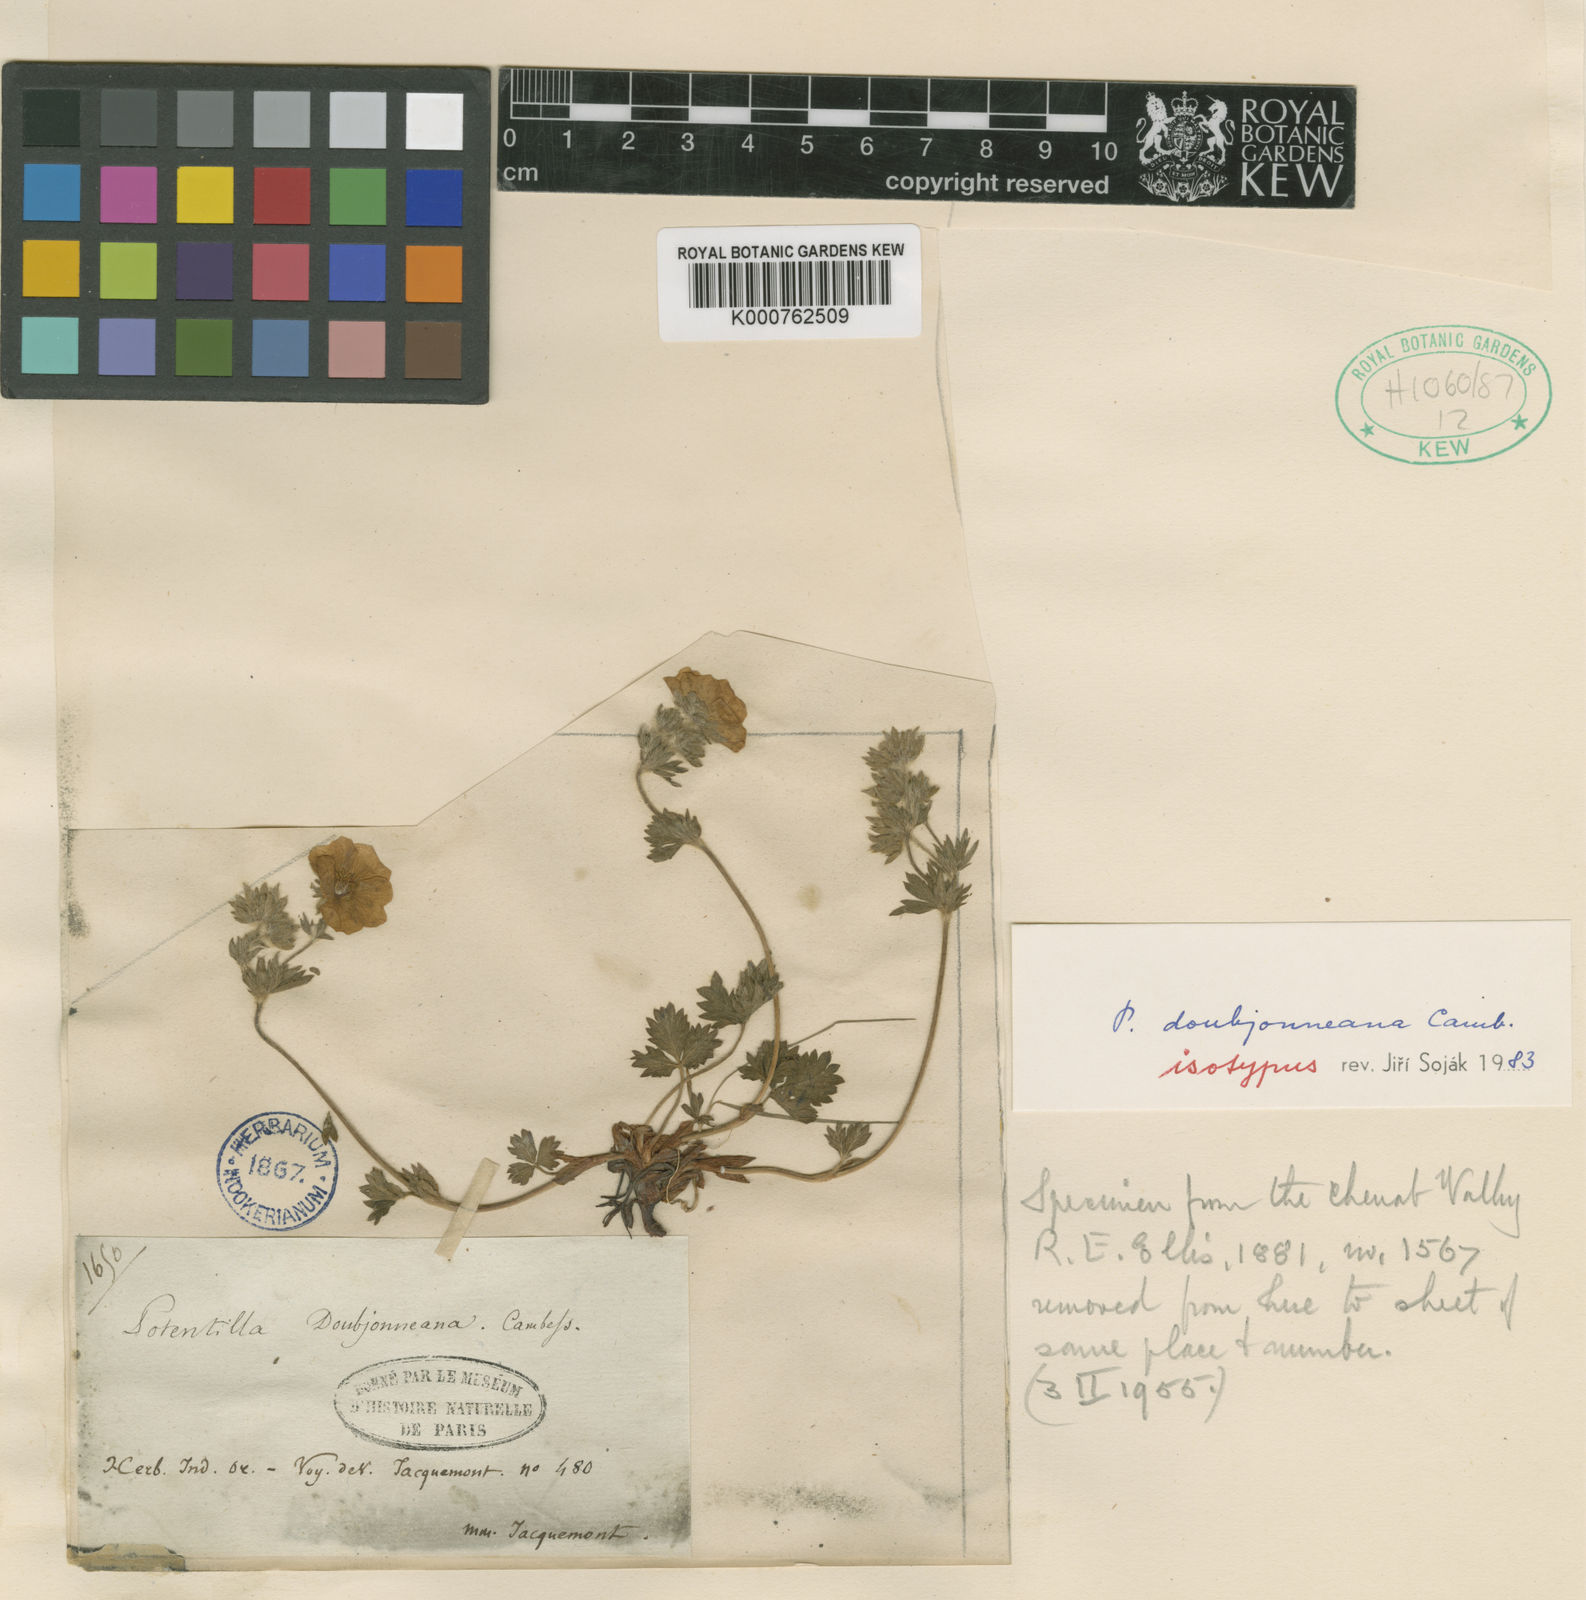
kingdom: Plantae
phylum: Tracheophyta
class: Magnoliopsida
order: Rosales
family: Rosaceae
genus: Potentilla
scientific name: Potentilla
